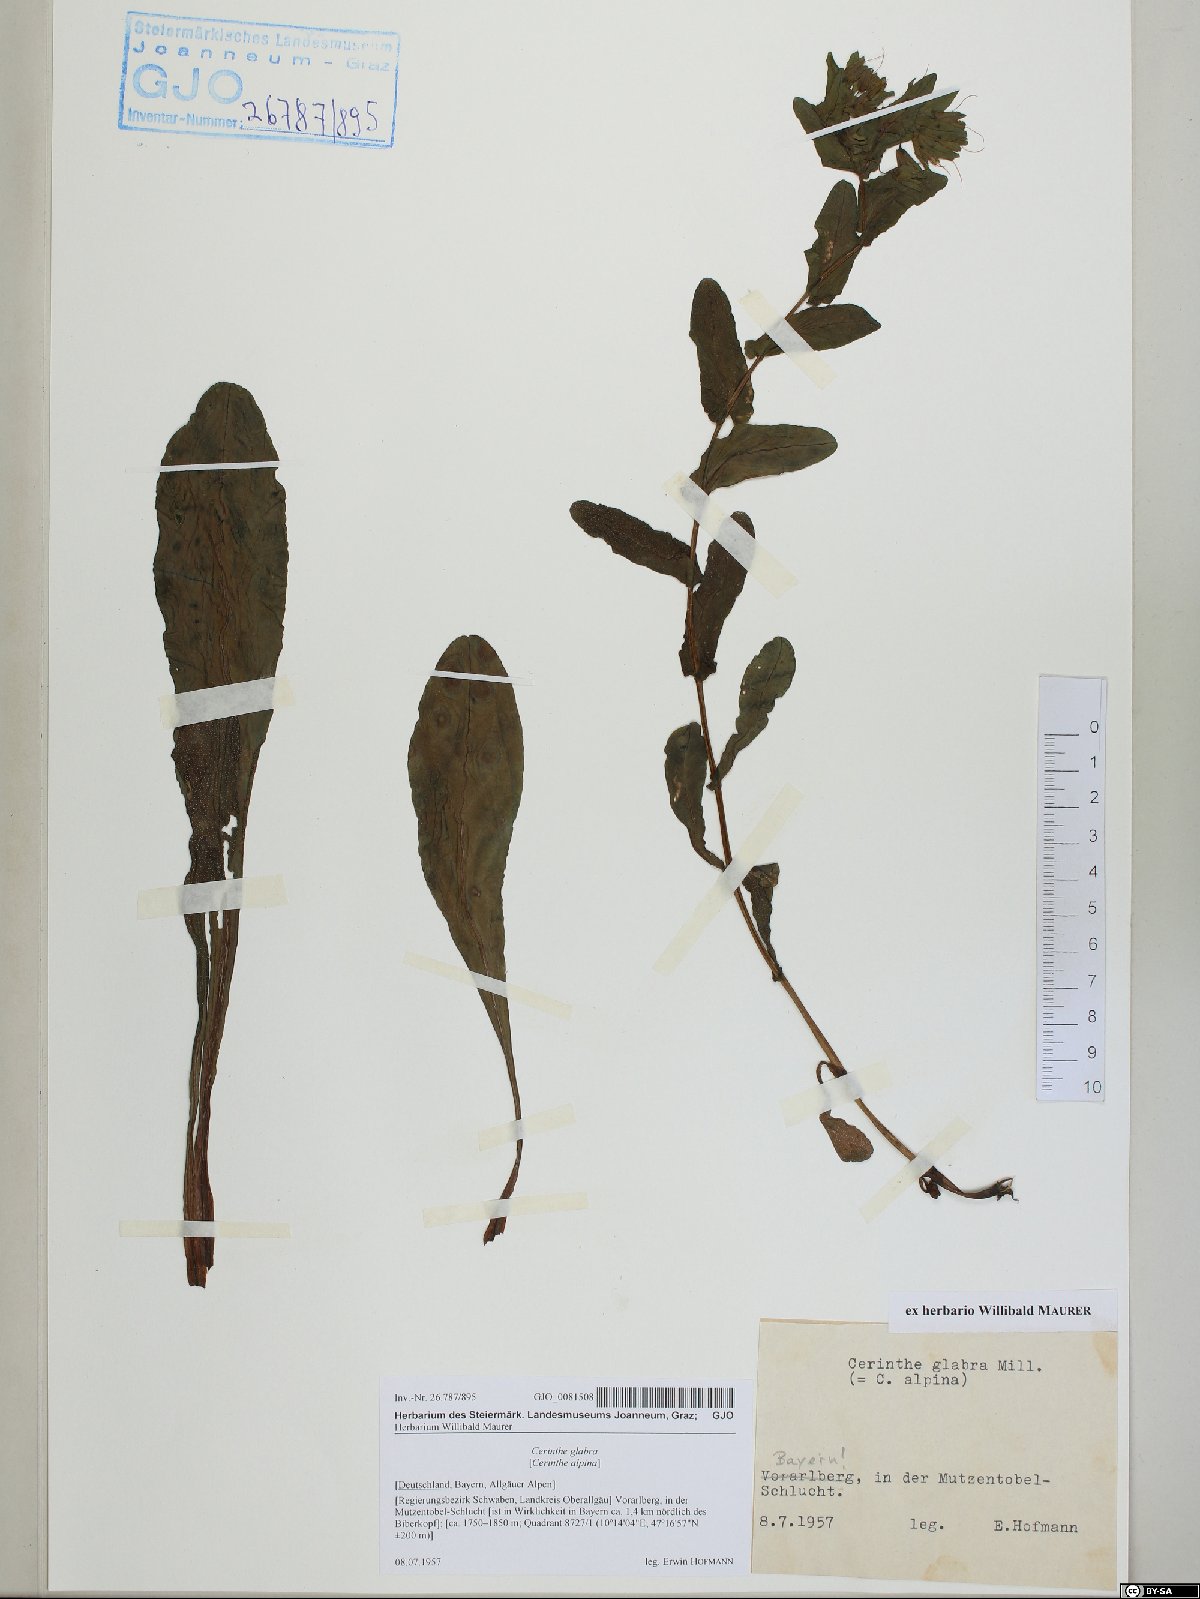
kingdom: Plantae
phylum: Tracheophyta
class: Magnoliopsida
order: Boraginales
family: Boraginaceae
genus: Cerinthe
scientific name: Cerinthe glabra
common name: Smooth honeywort
